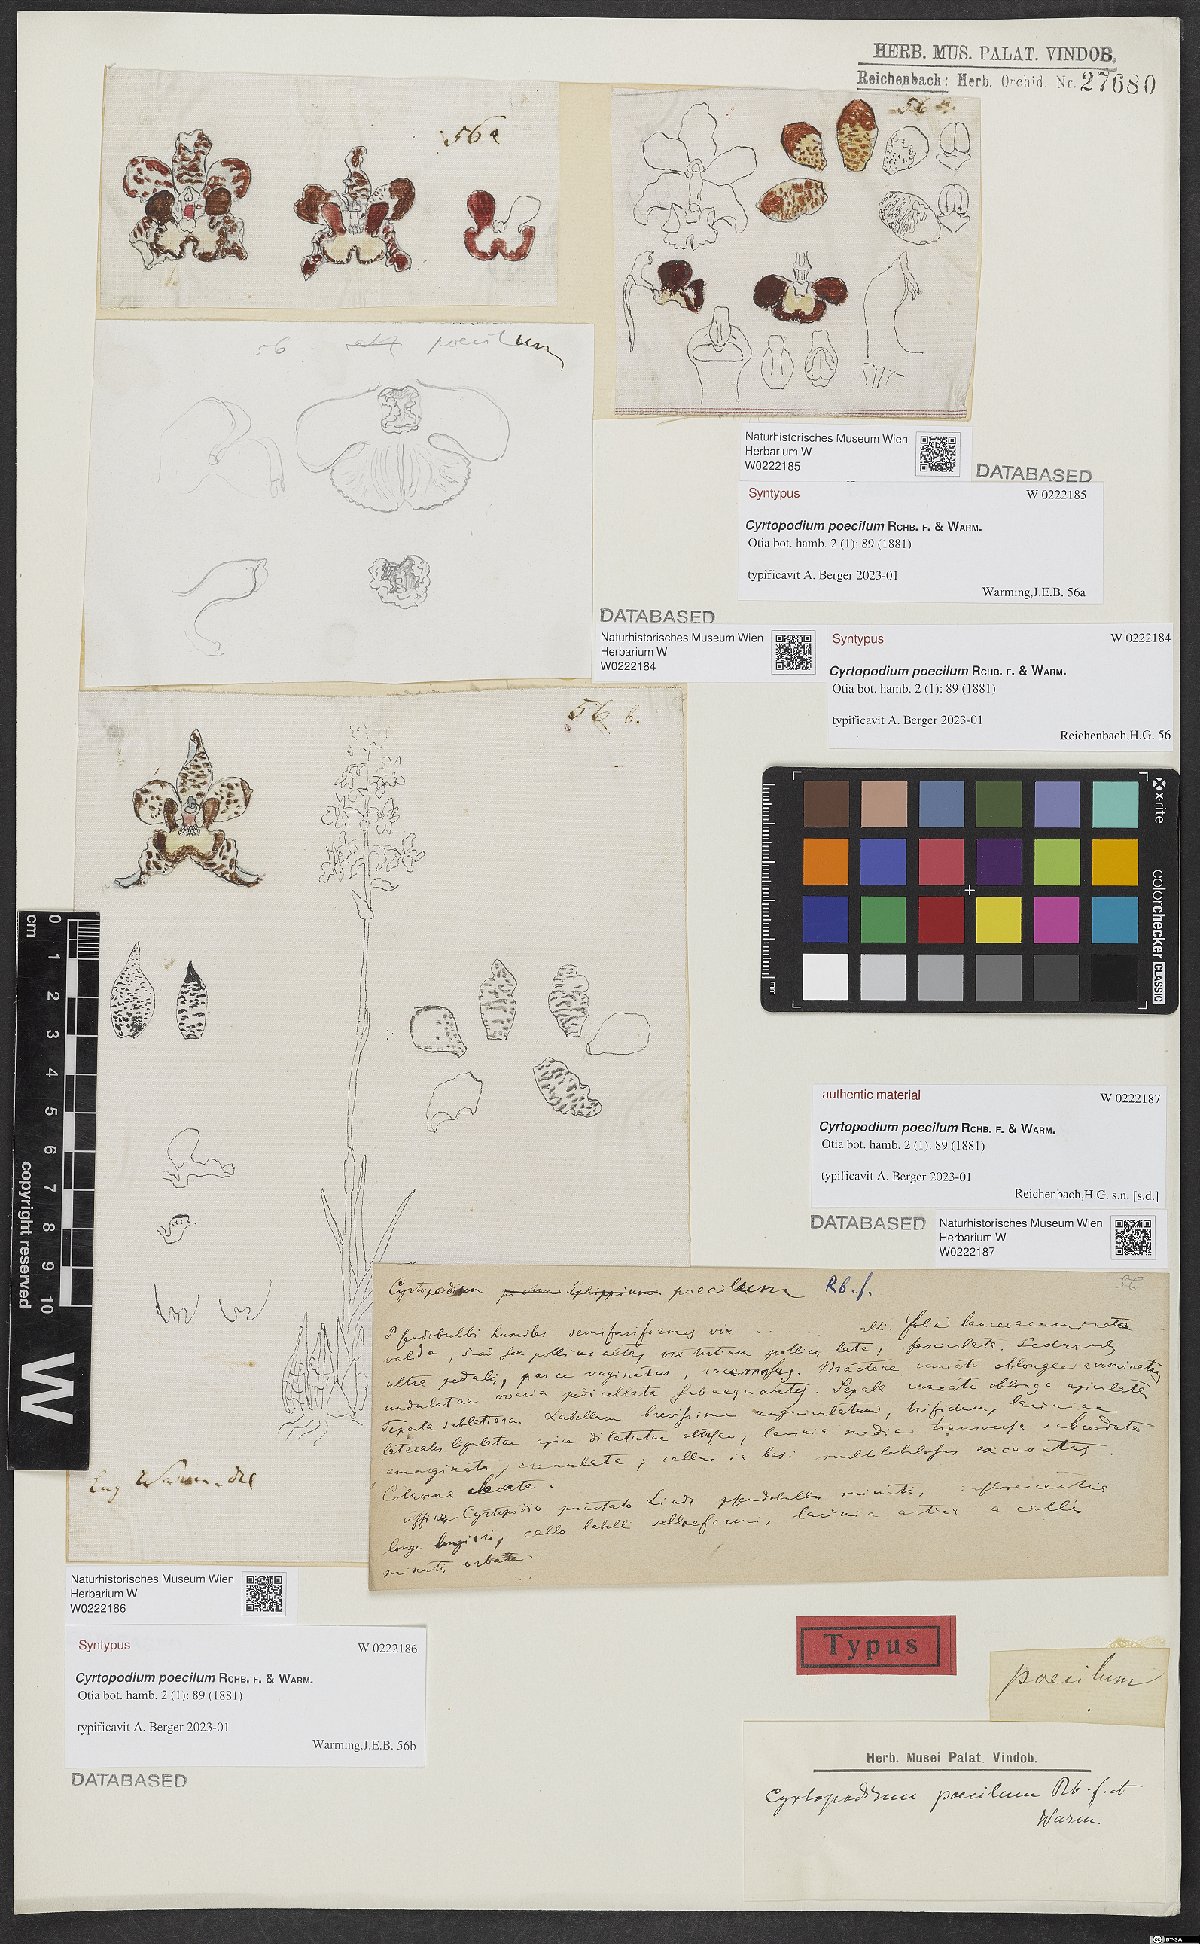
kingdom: Plantae
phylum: Tracheophyta
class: Liliopsida
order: Asparagales
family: Orchidaceae
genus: Cyrtopodium
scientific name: Cyrtopodium poecilum
